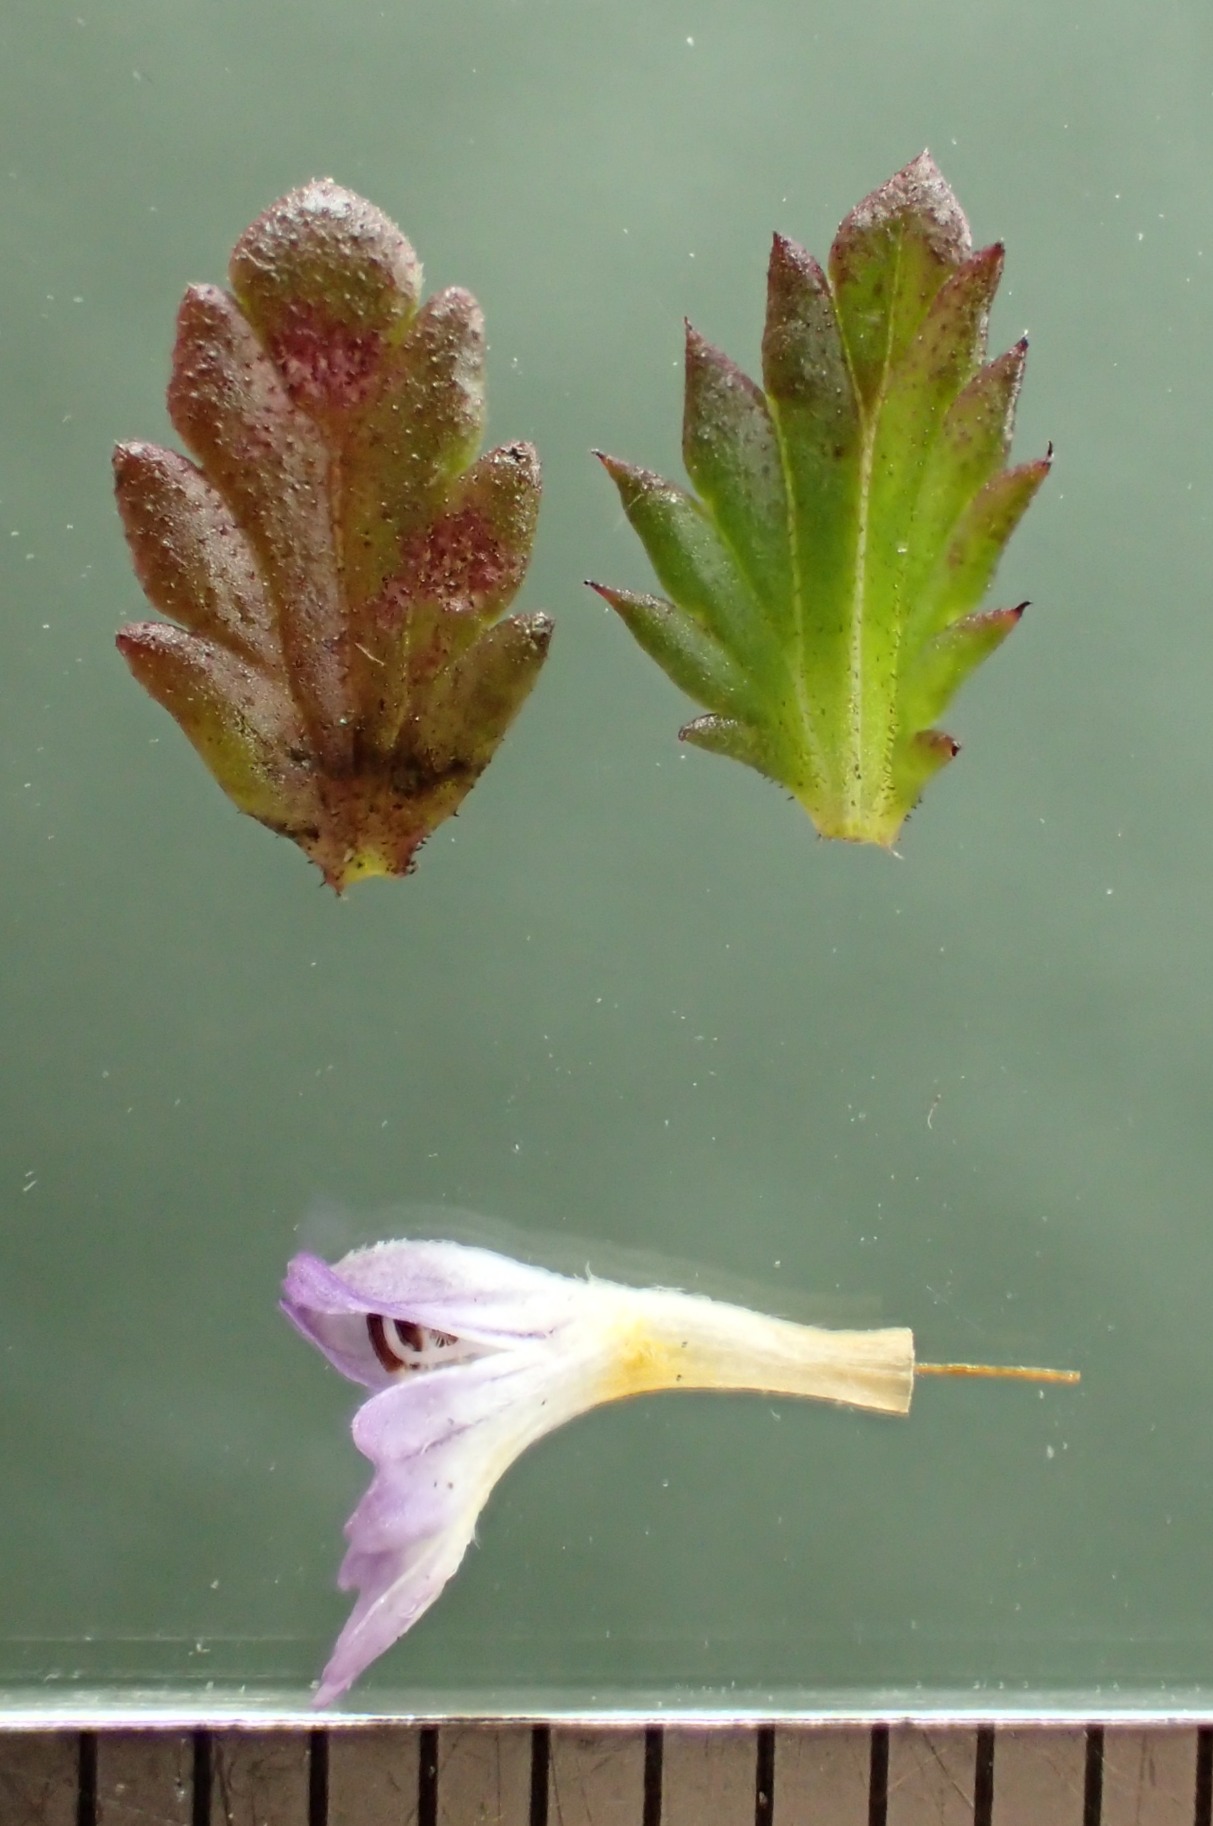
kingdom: Plantae
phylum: Tracheophyta
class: Magnoliopsida
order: Lamiales
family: Orobanchaceae
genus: Euphrasia
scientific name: Euphrasia micrantha
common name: Lyng-øjentrøst
